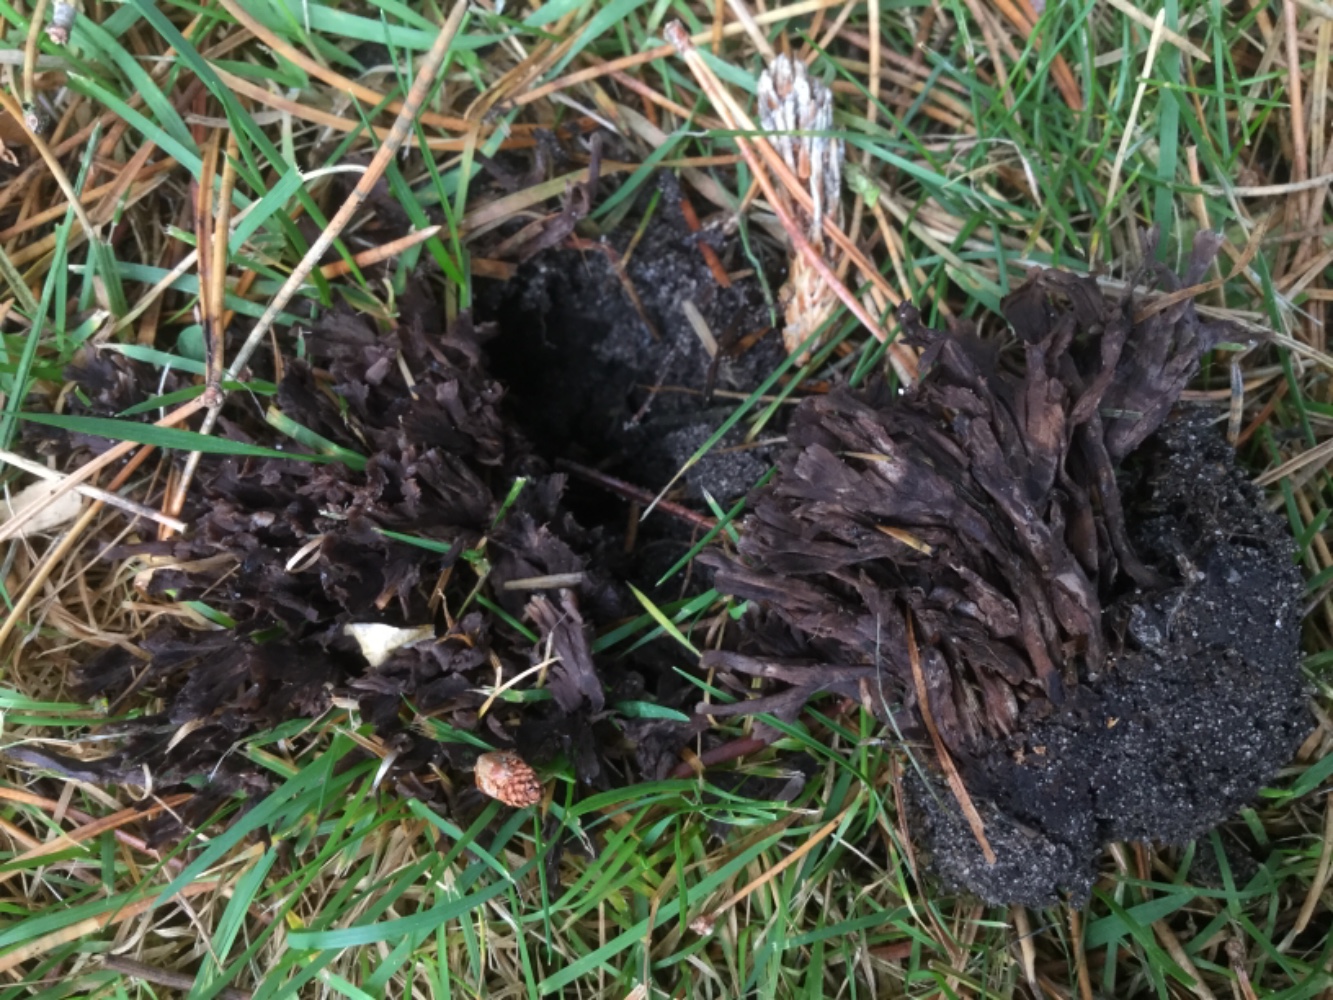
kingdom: Fungi
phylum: Basidiomycota
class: Agaricomycetes
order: Thelephorales
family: Thelephoraceae
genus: Thelephora
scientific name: Thelephora palmata
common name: grenet frynsesvamp
